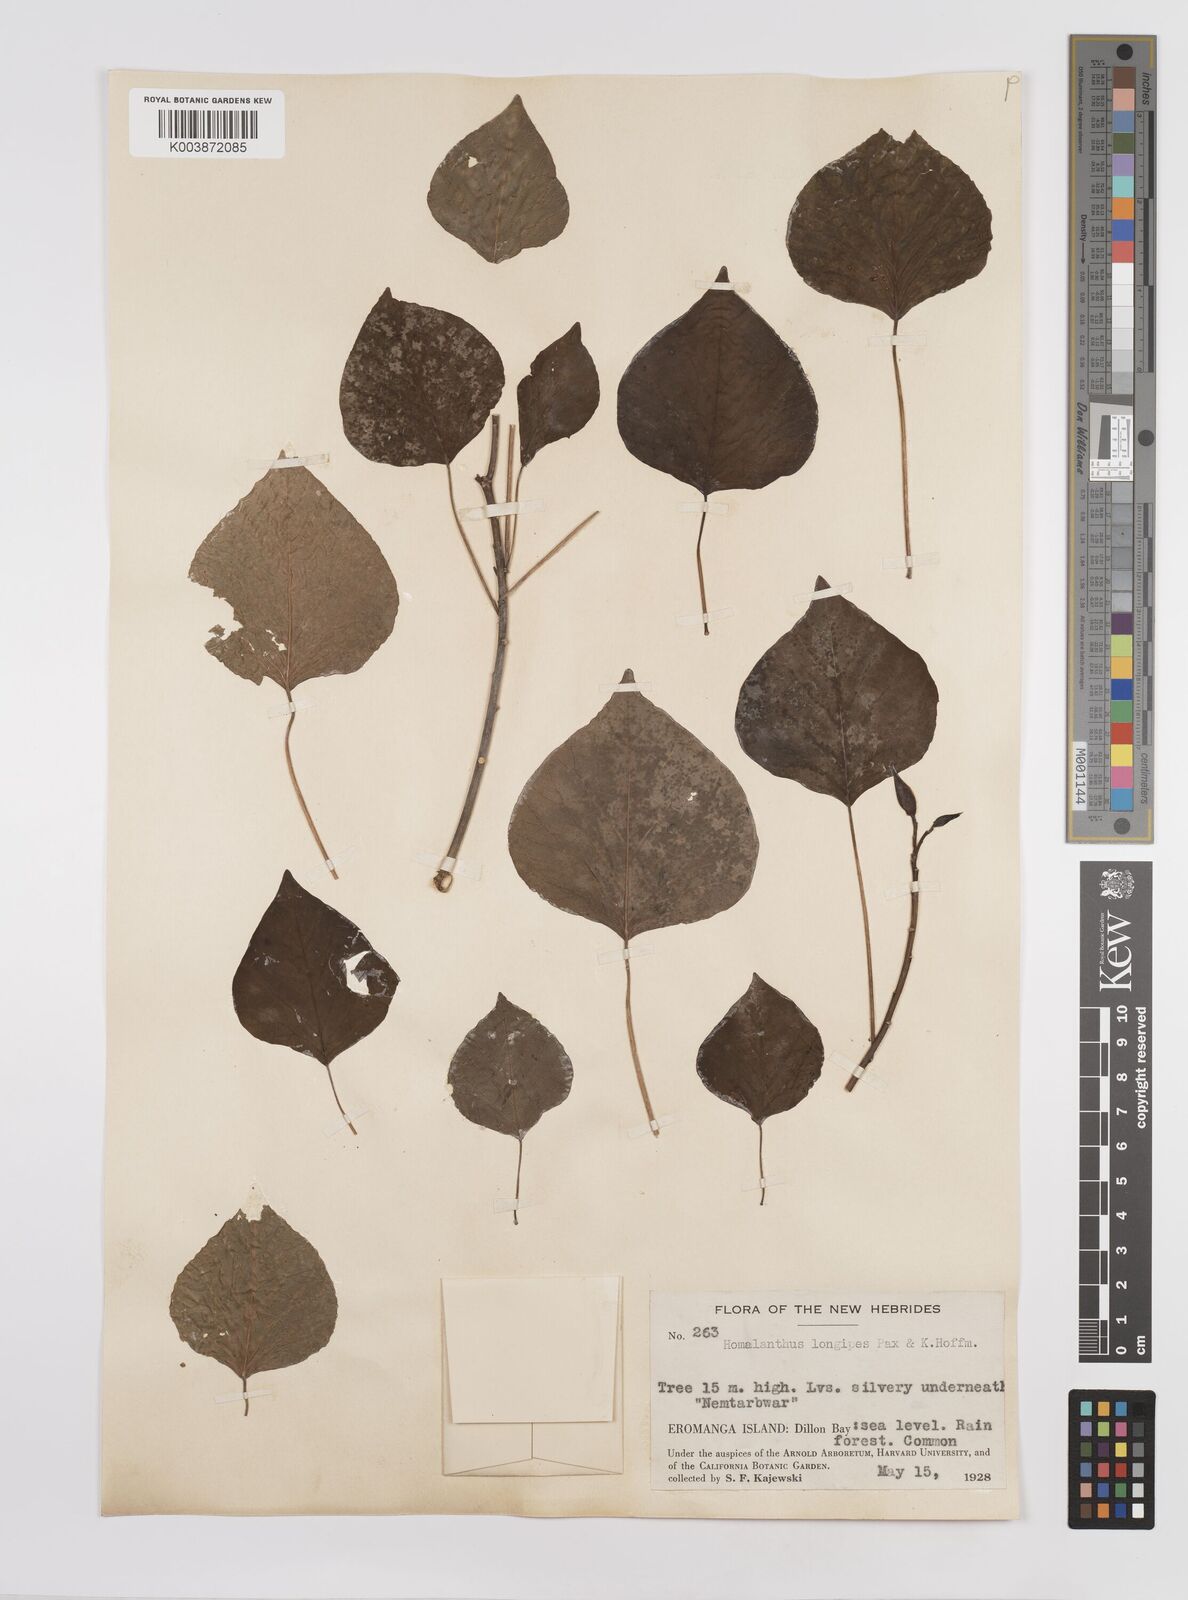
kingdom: Plantae
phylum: Tracheophyta
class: Magnoliopsida
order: Malpighiales
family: Euphorbiaceae
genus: Homalanthus
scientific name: Homalanthus longipes
